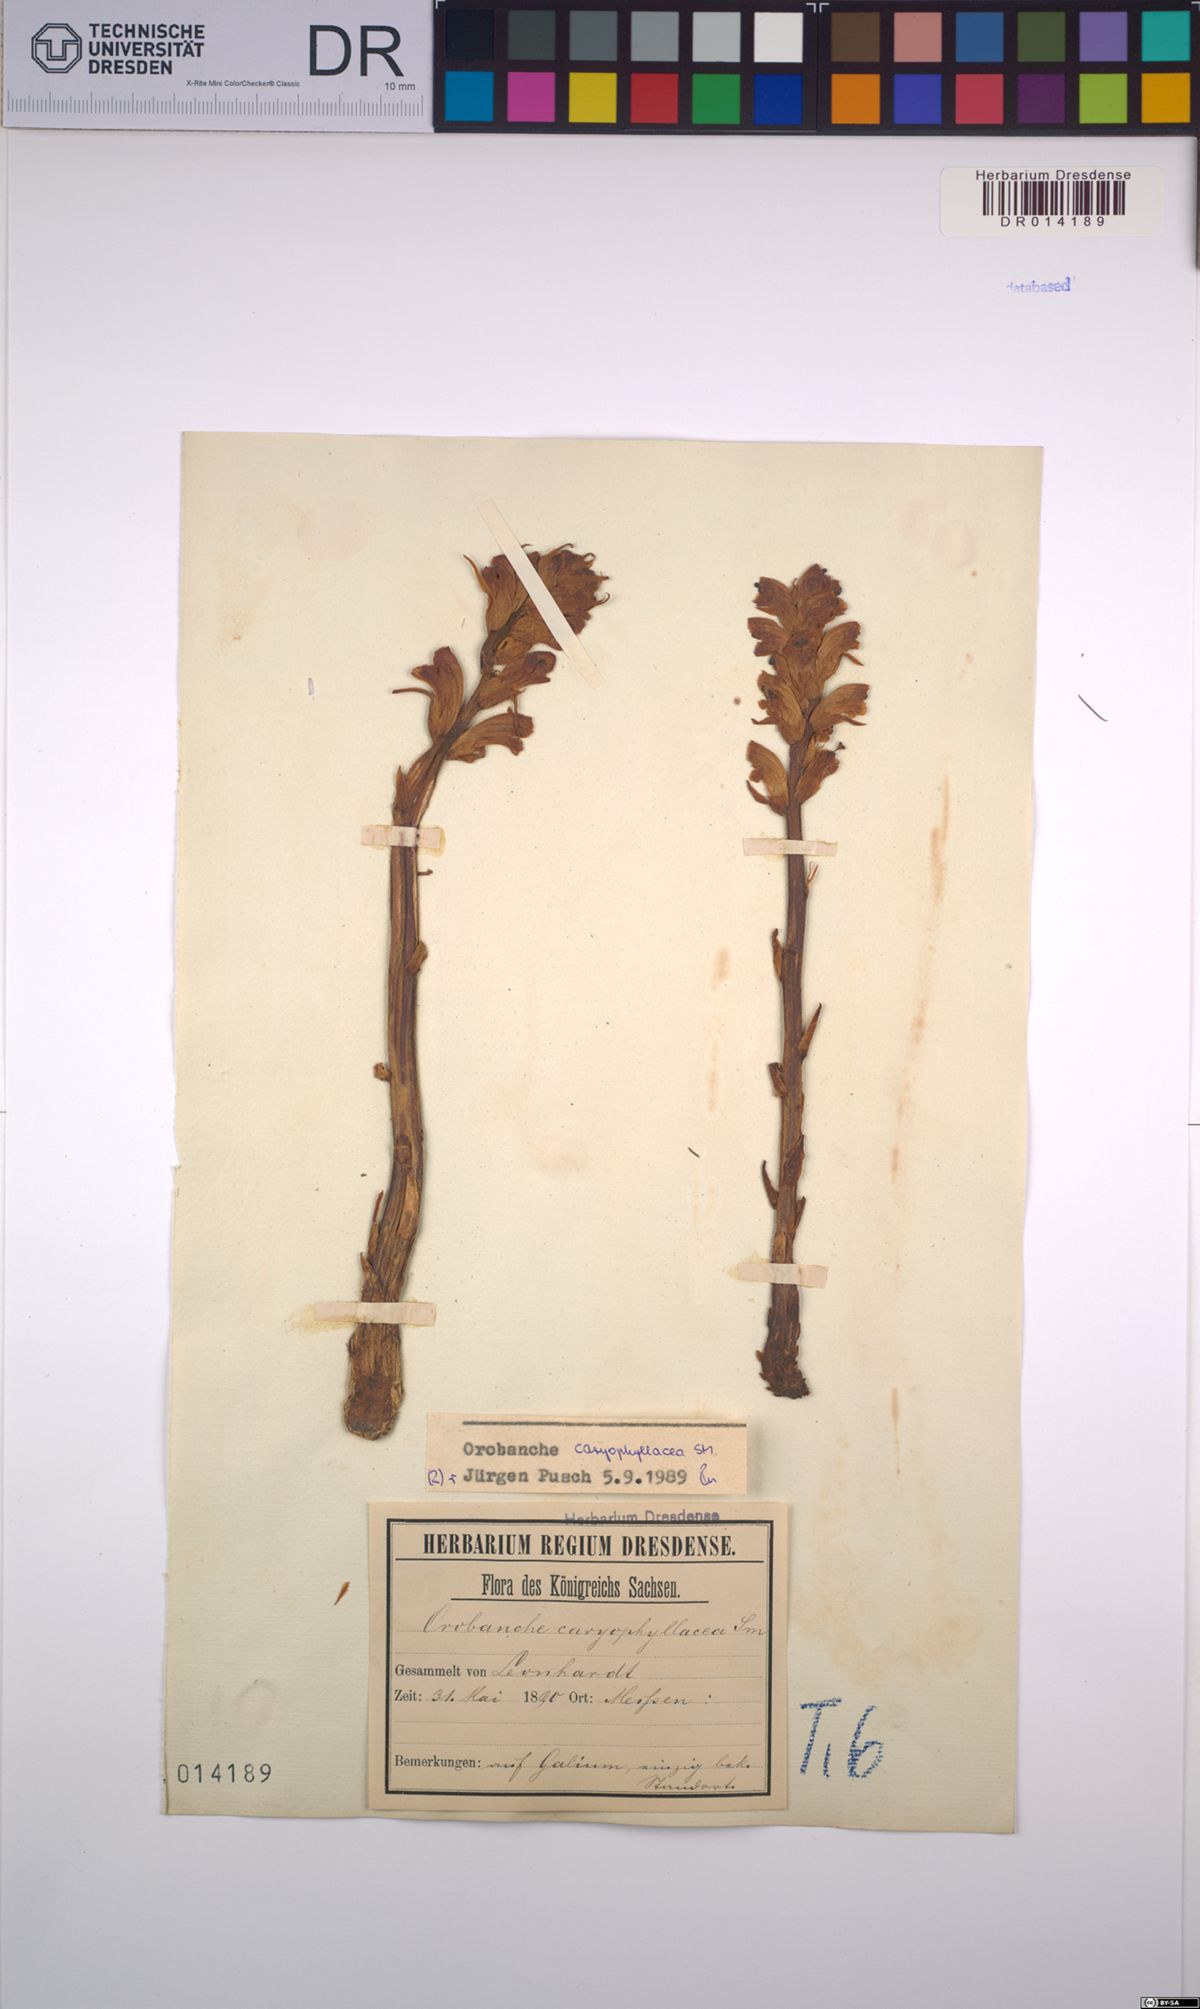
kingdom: Plantae
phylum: Tracheophyta
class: Magnoliopsida
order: Lamiales
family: Orobanchaceae
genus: Orobanche
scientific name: Orobanche caryophyllacea
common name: Bedstraw broomrape
